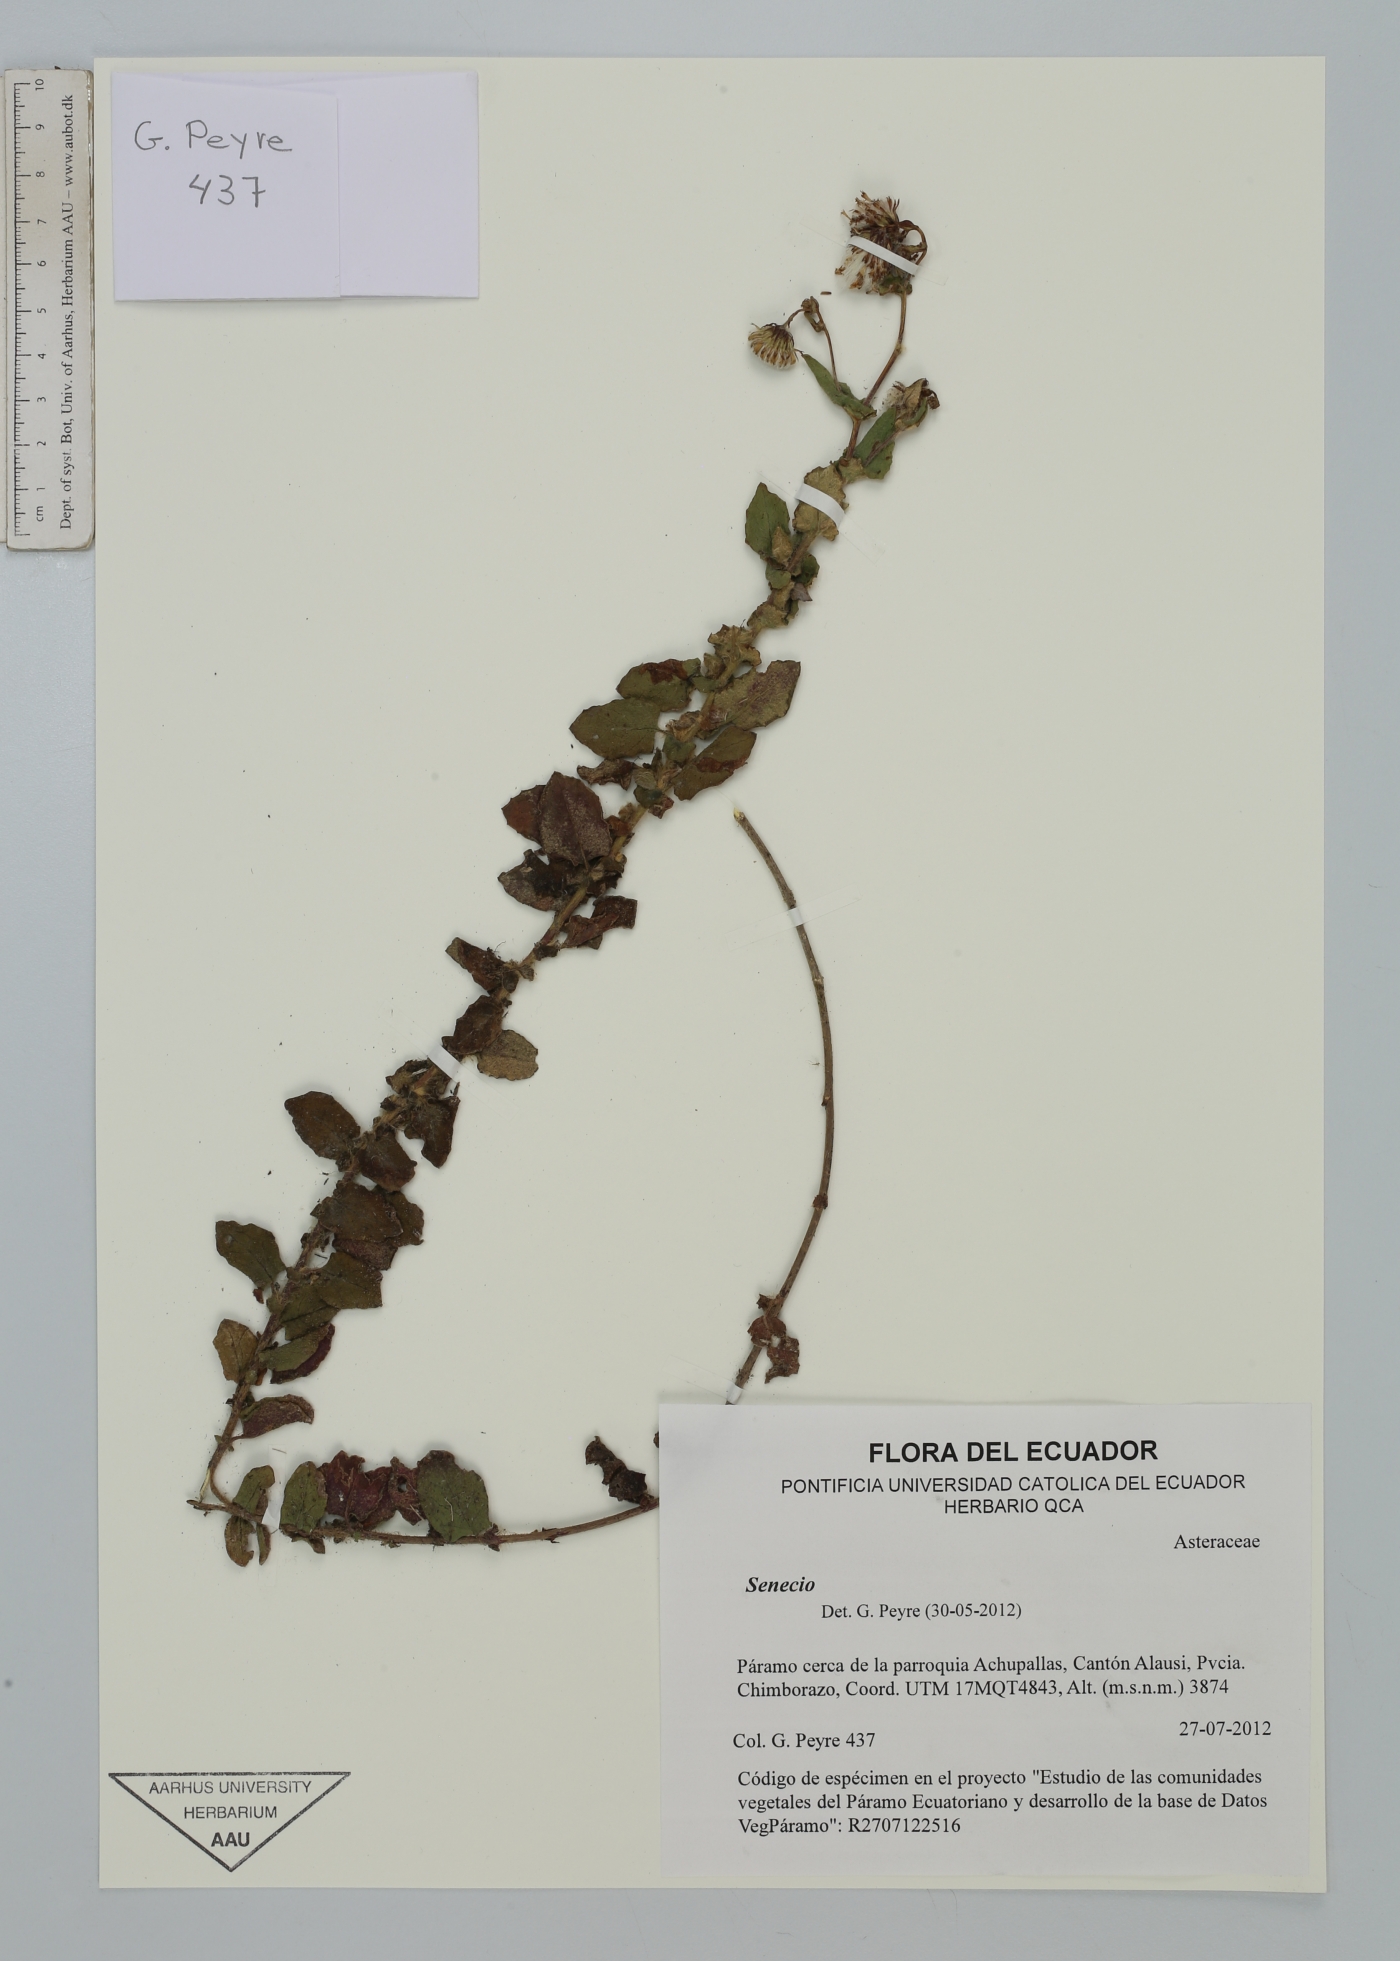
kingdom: Plantae
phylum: Tracheophyta
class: Magnoliopsida
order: Asterales
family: Asteraceae
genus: Aetheolaena
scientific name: Aetheolaena otophora
